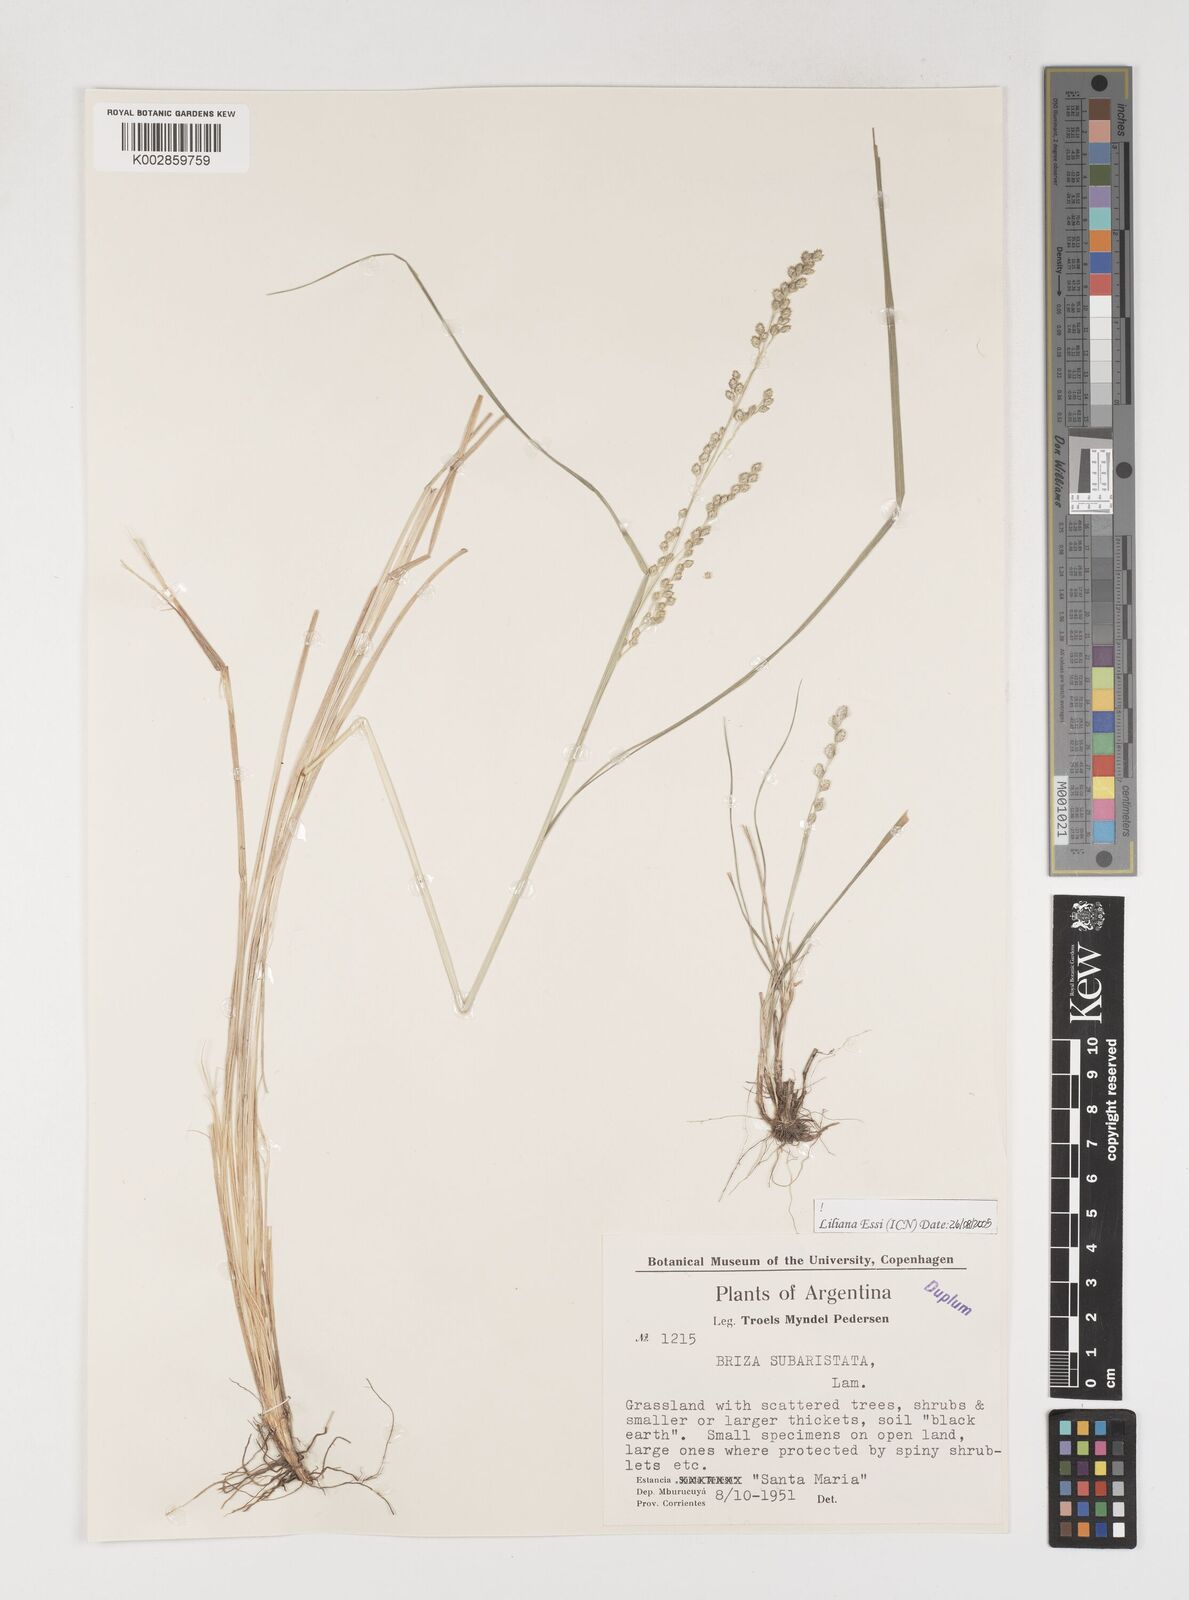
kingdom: Plantae
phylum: Tracheophyta
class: Liliopsida
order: Poales
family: Poaceae
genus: Chascolytrum
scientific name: Chascolytrum subaristatum
